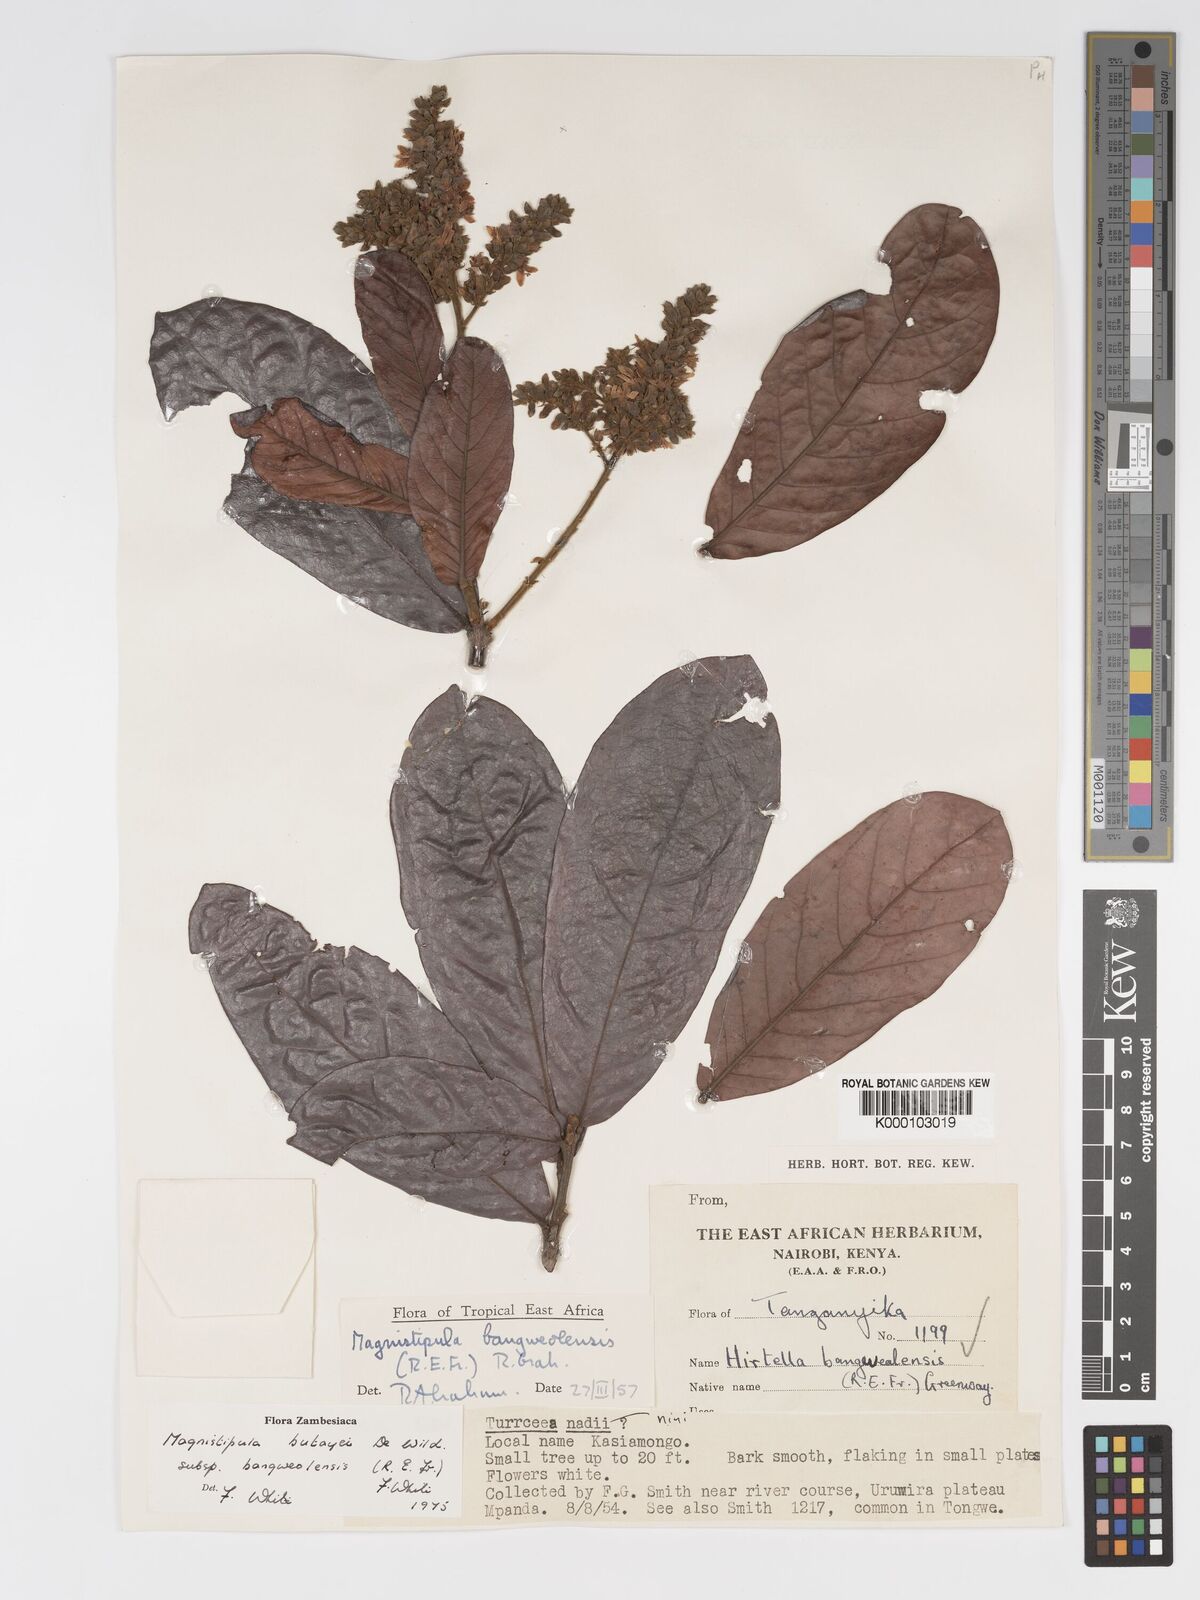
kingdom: Plantae
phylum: Tracheophyta
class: Magnoliopsida
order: Malpighiales
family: Chrysobalanaceae
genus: Magnistipula
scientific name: Magnistipula butayei
